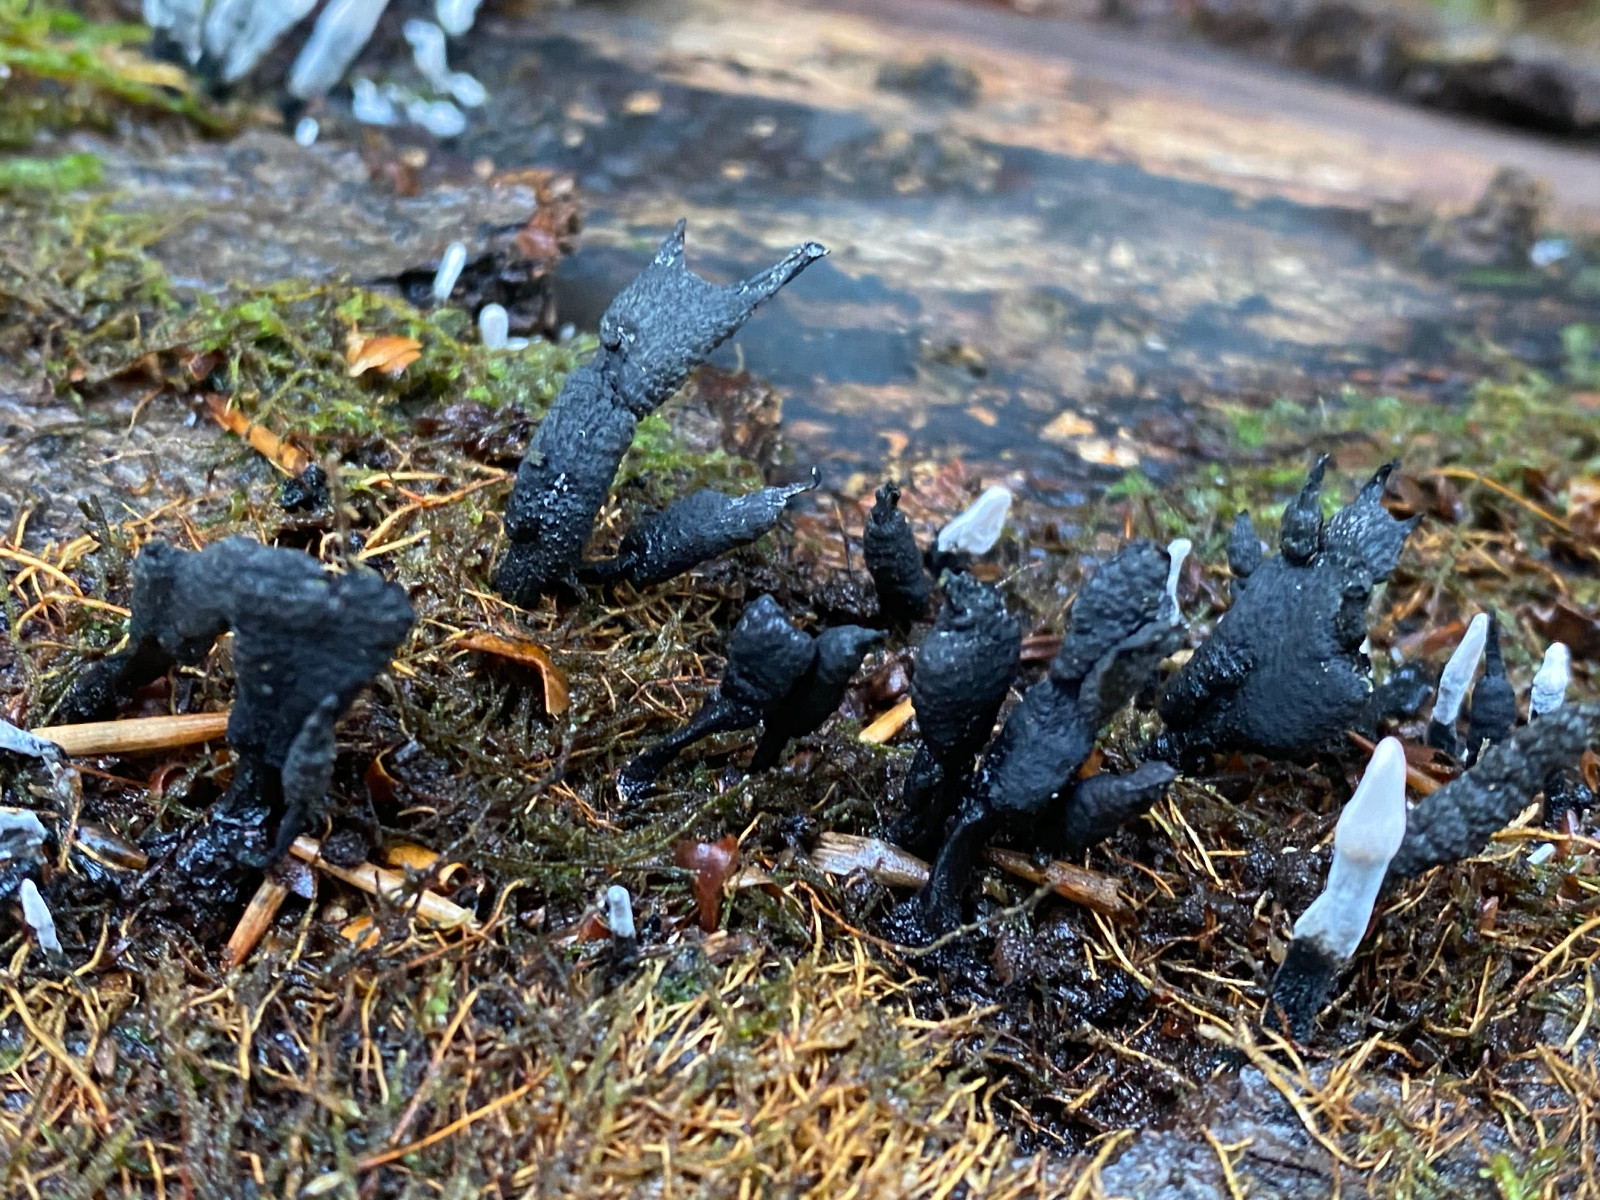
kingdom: Fungi
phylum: Ascomycota
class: Sordariomycetes
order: Xylariales
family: Xylariaceae
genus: Xylaria
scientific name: Xylaria hypoxylon
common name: grenet stødsvamp
